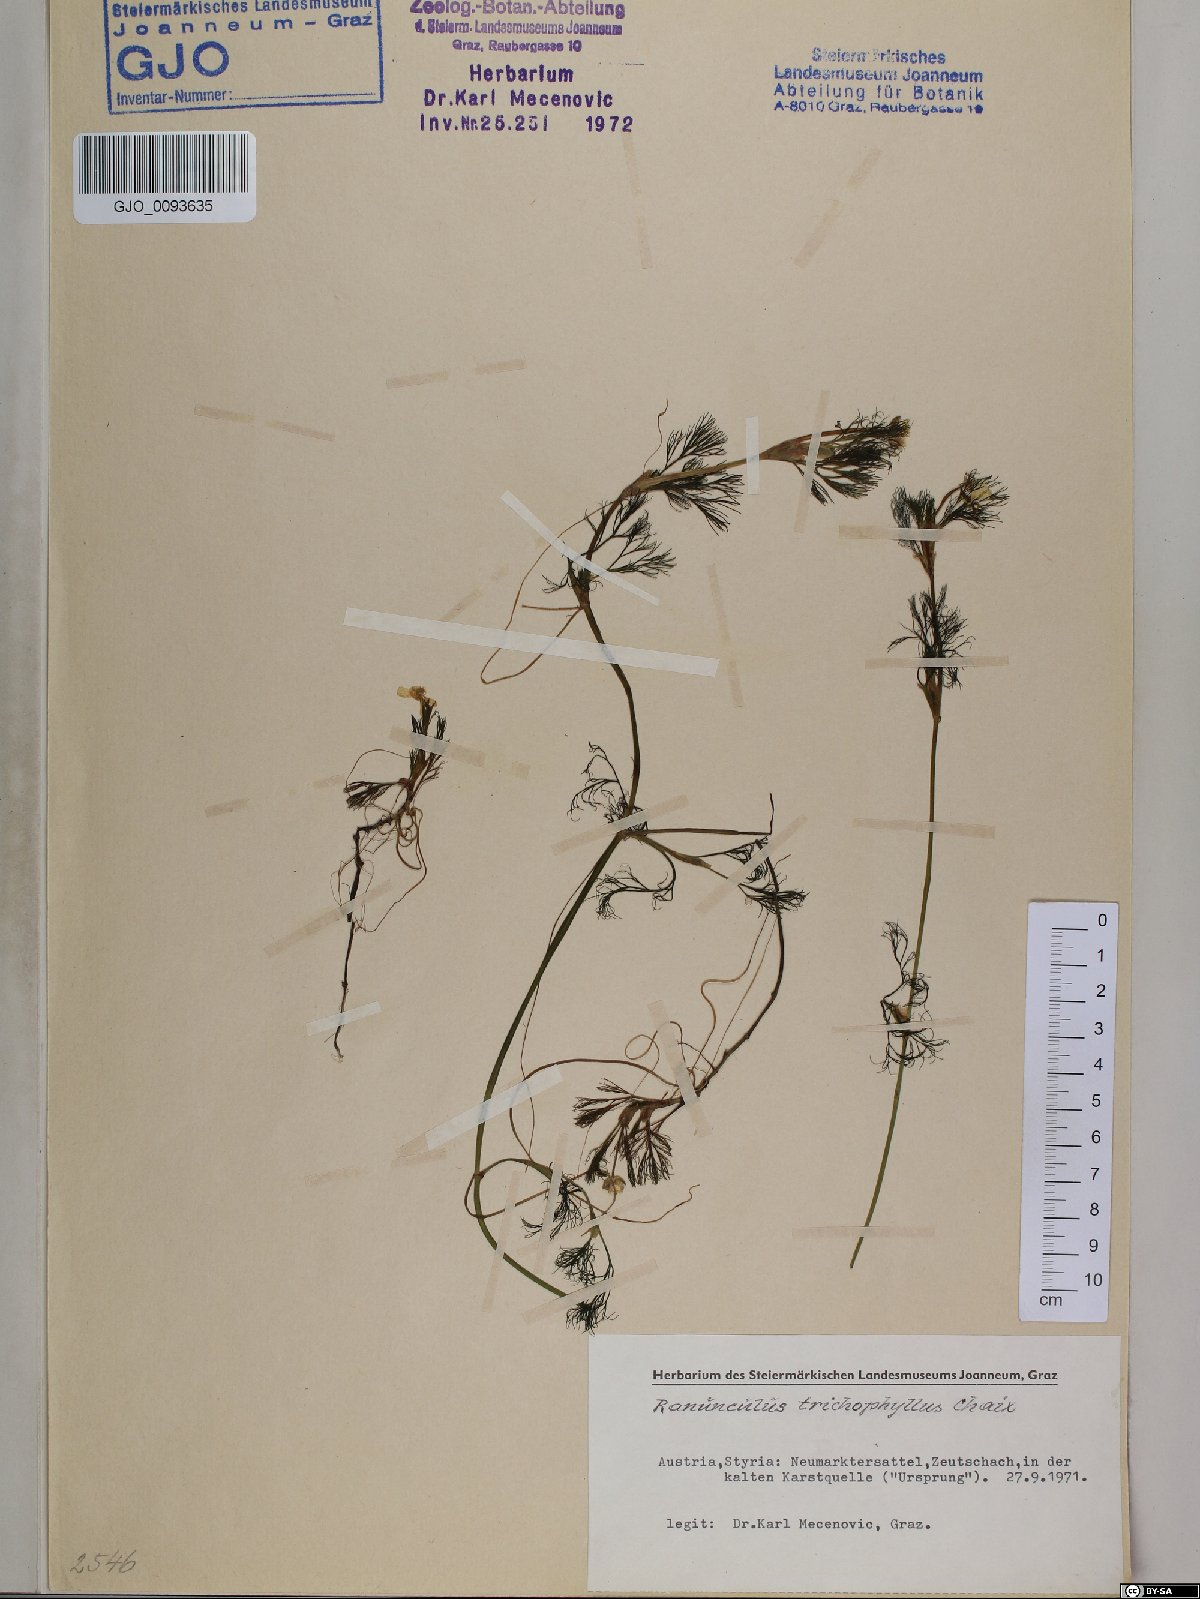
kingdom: Plantae
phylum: Tracheophyta
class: Magnoliopsida
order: Ranunculales
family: Ranunculaceae
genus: Ranunculus
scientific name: Ranunculus trichophyllus
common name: Thread-leaved water-crowfoot
